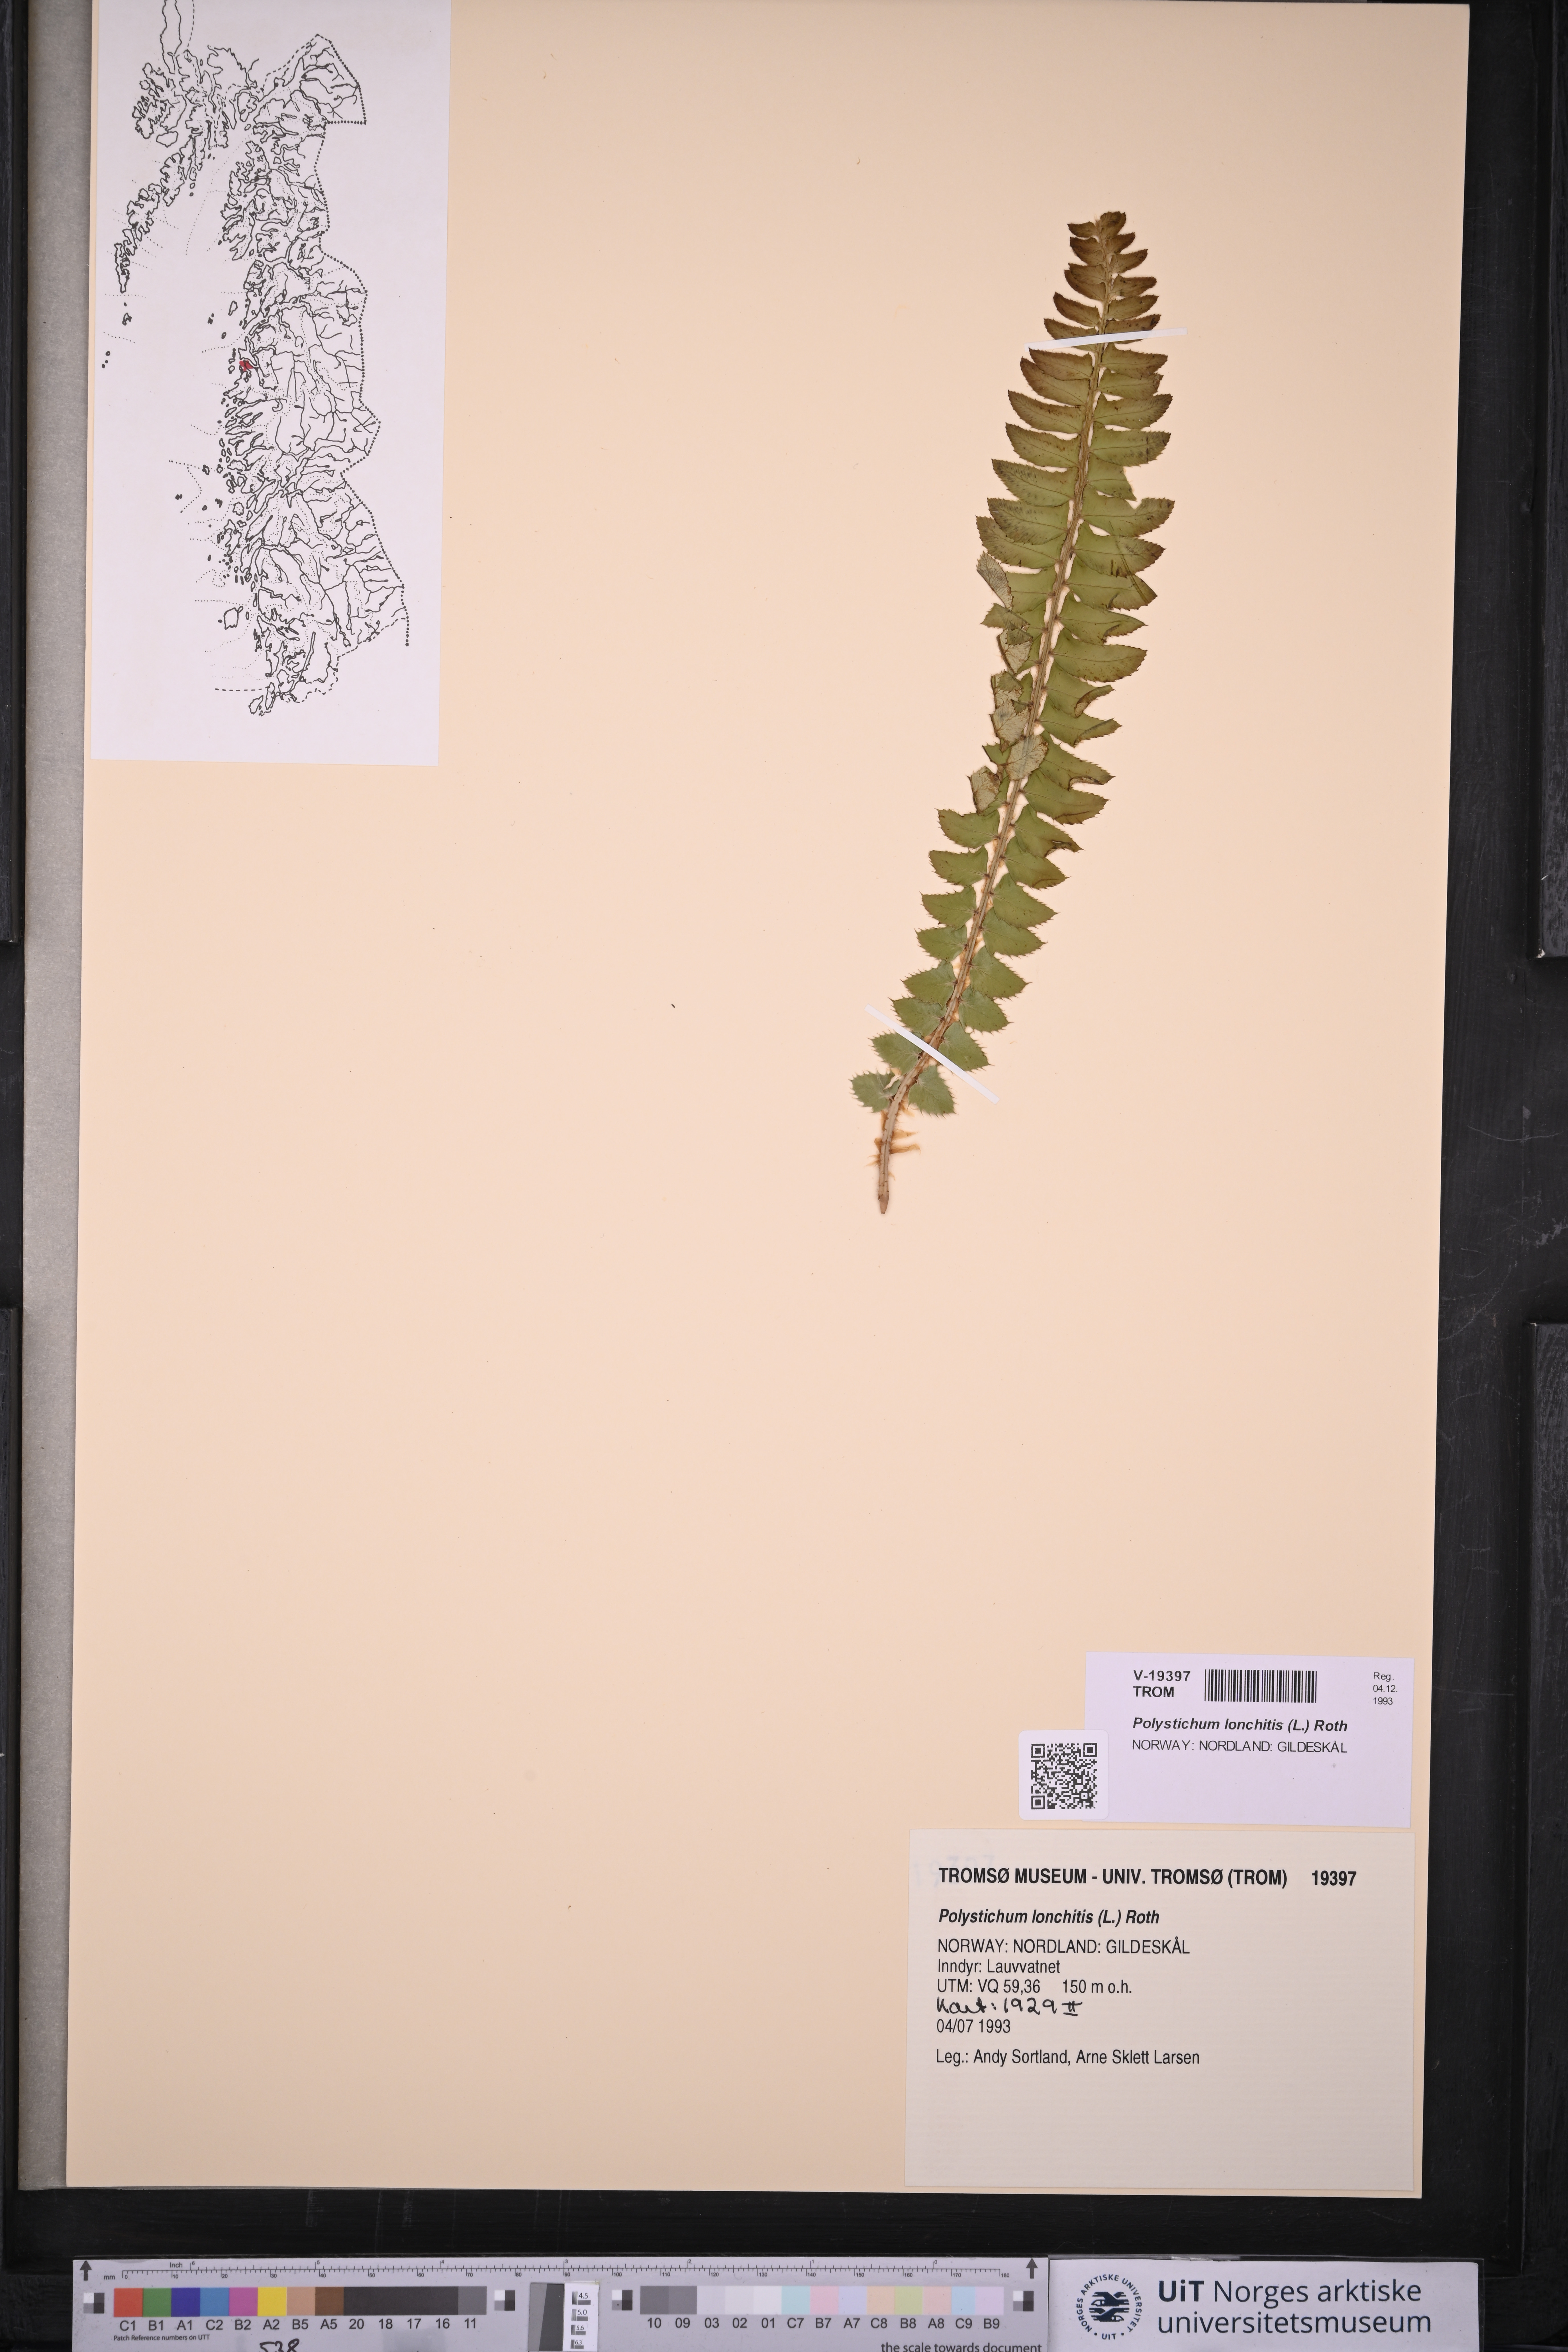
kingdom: Plantae
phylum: Tracheophyta
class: Polypodiopsida
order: Polypodiales
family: Dryopteridaceae
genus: Polystichum
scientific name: Polystichum lonchitis
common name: Holly fern
